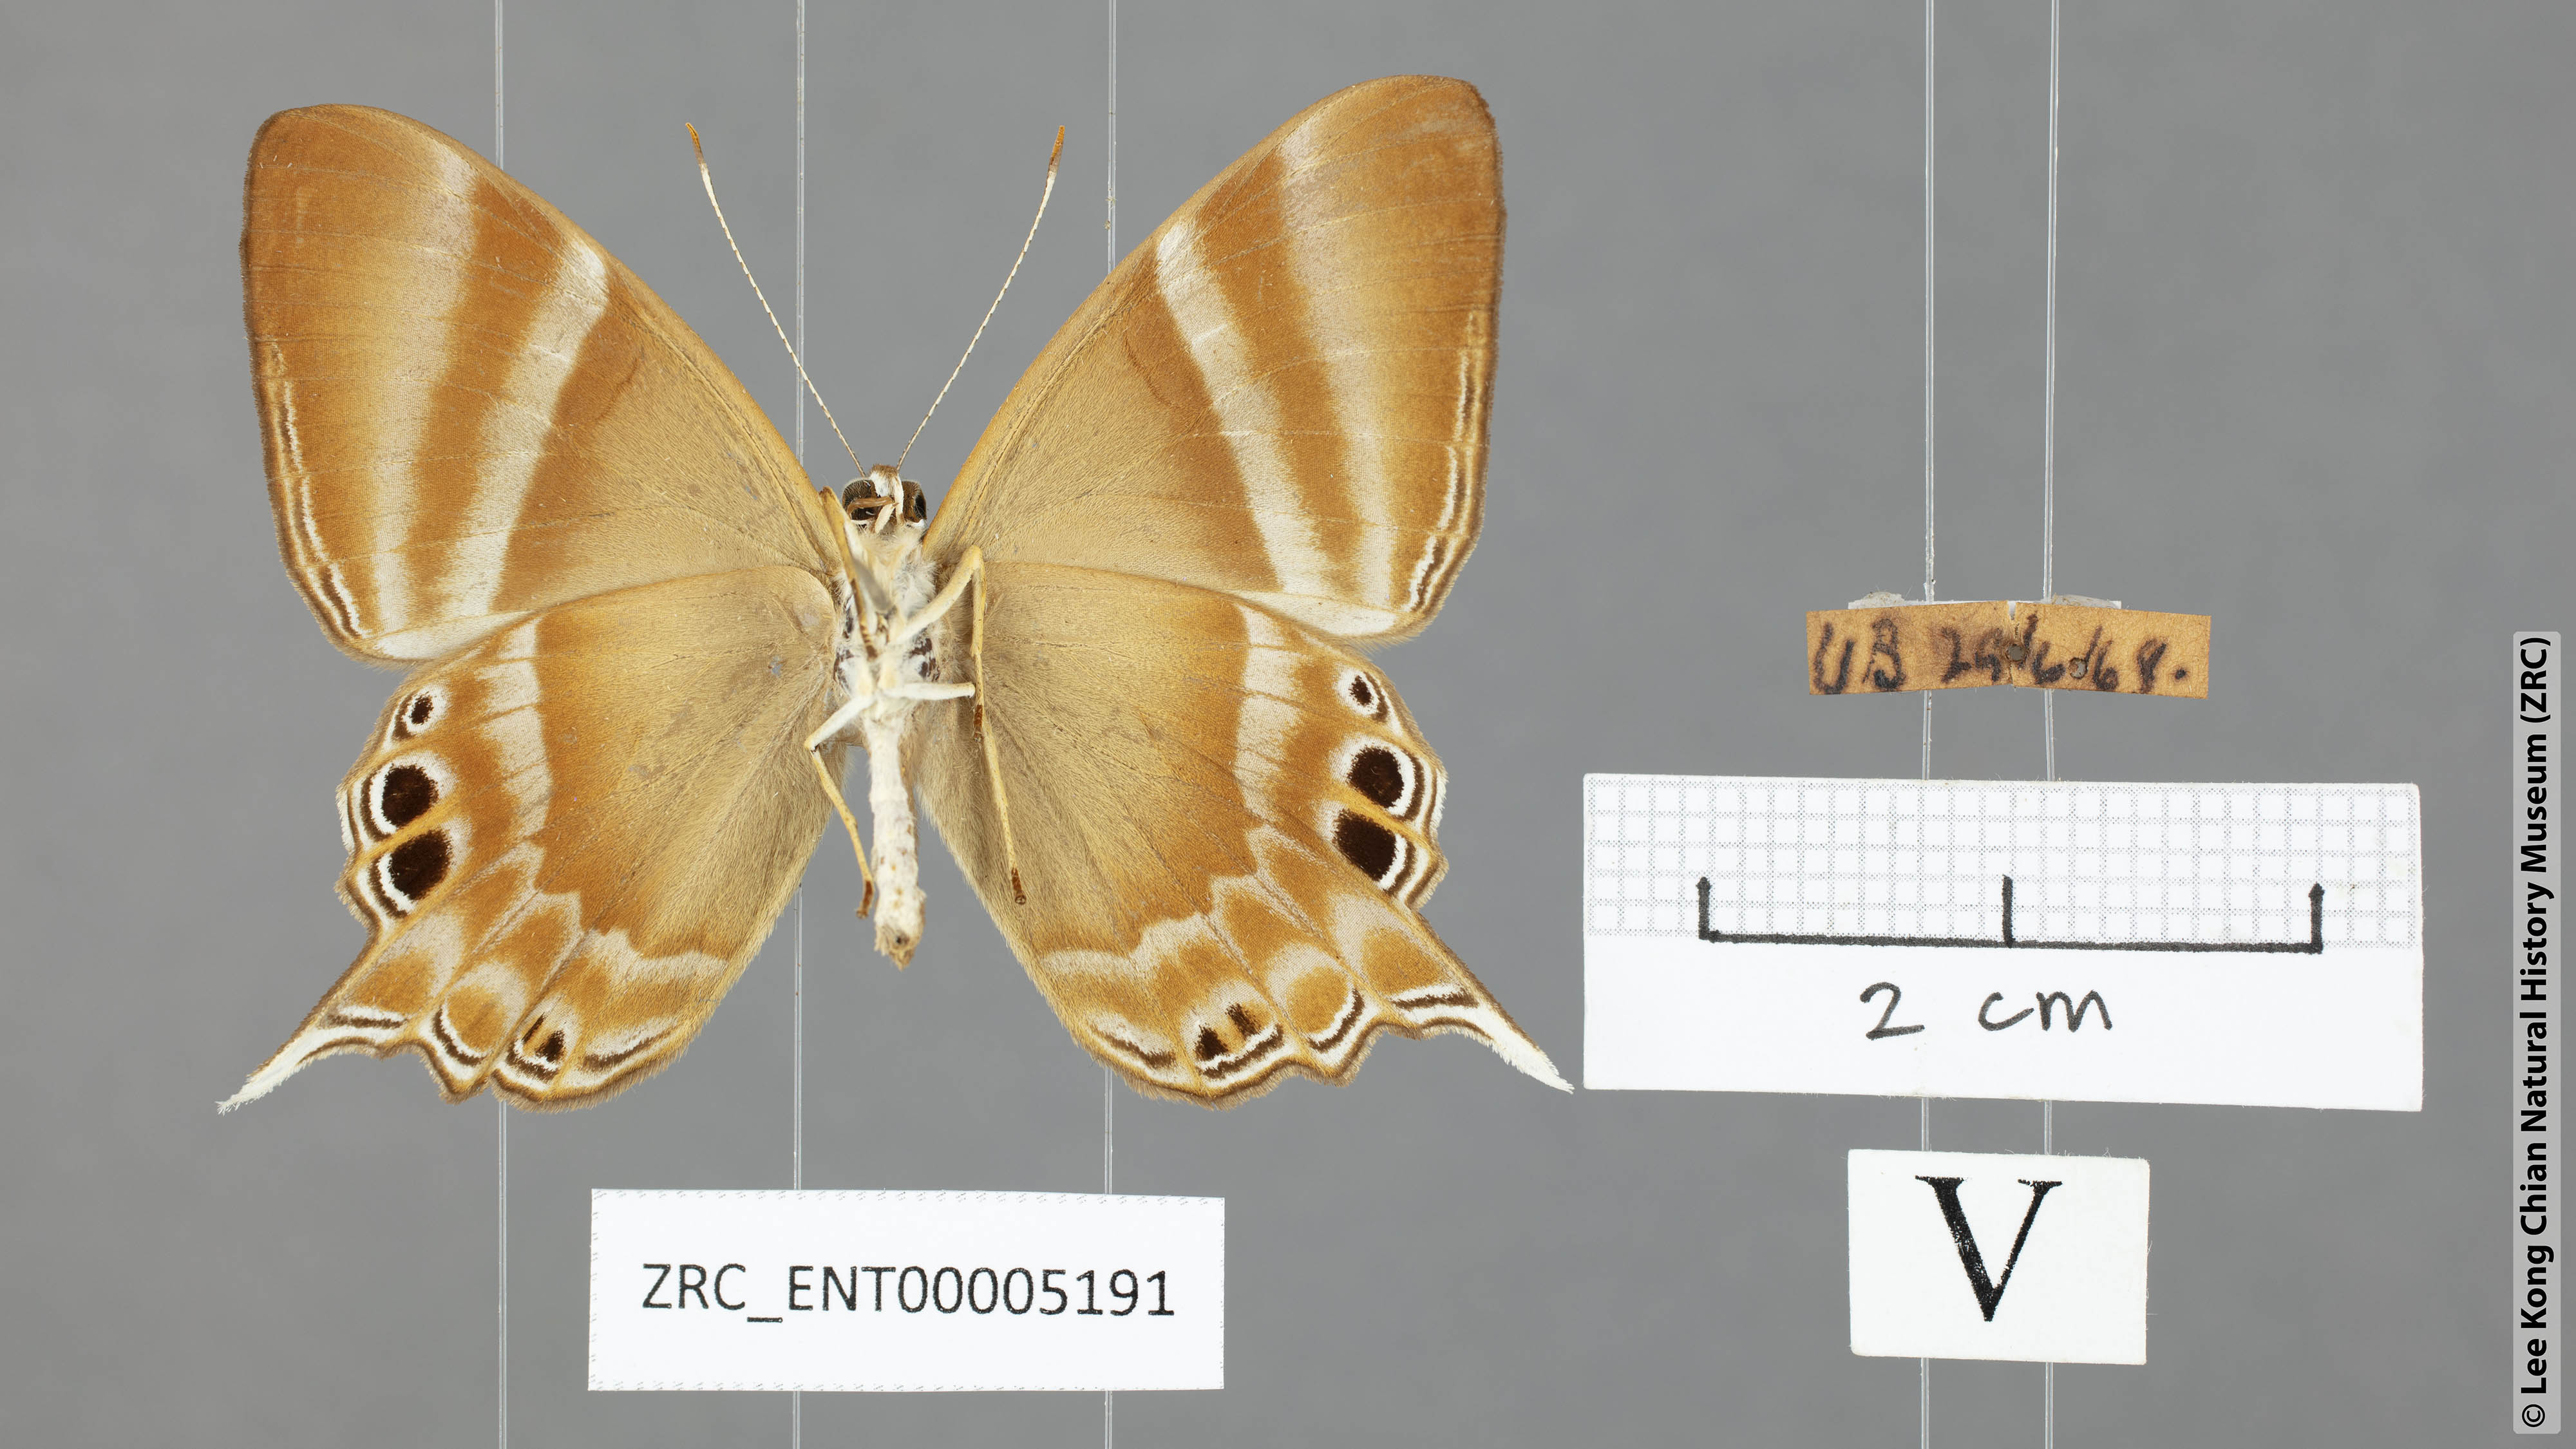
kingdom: Animalia
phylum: Arthropoda
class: Insecta
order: Lepidoptera
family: Riodinidae
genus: Archigenes
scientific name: Archigenes savitri
